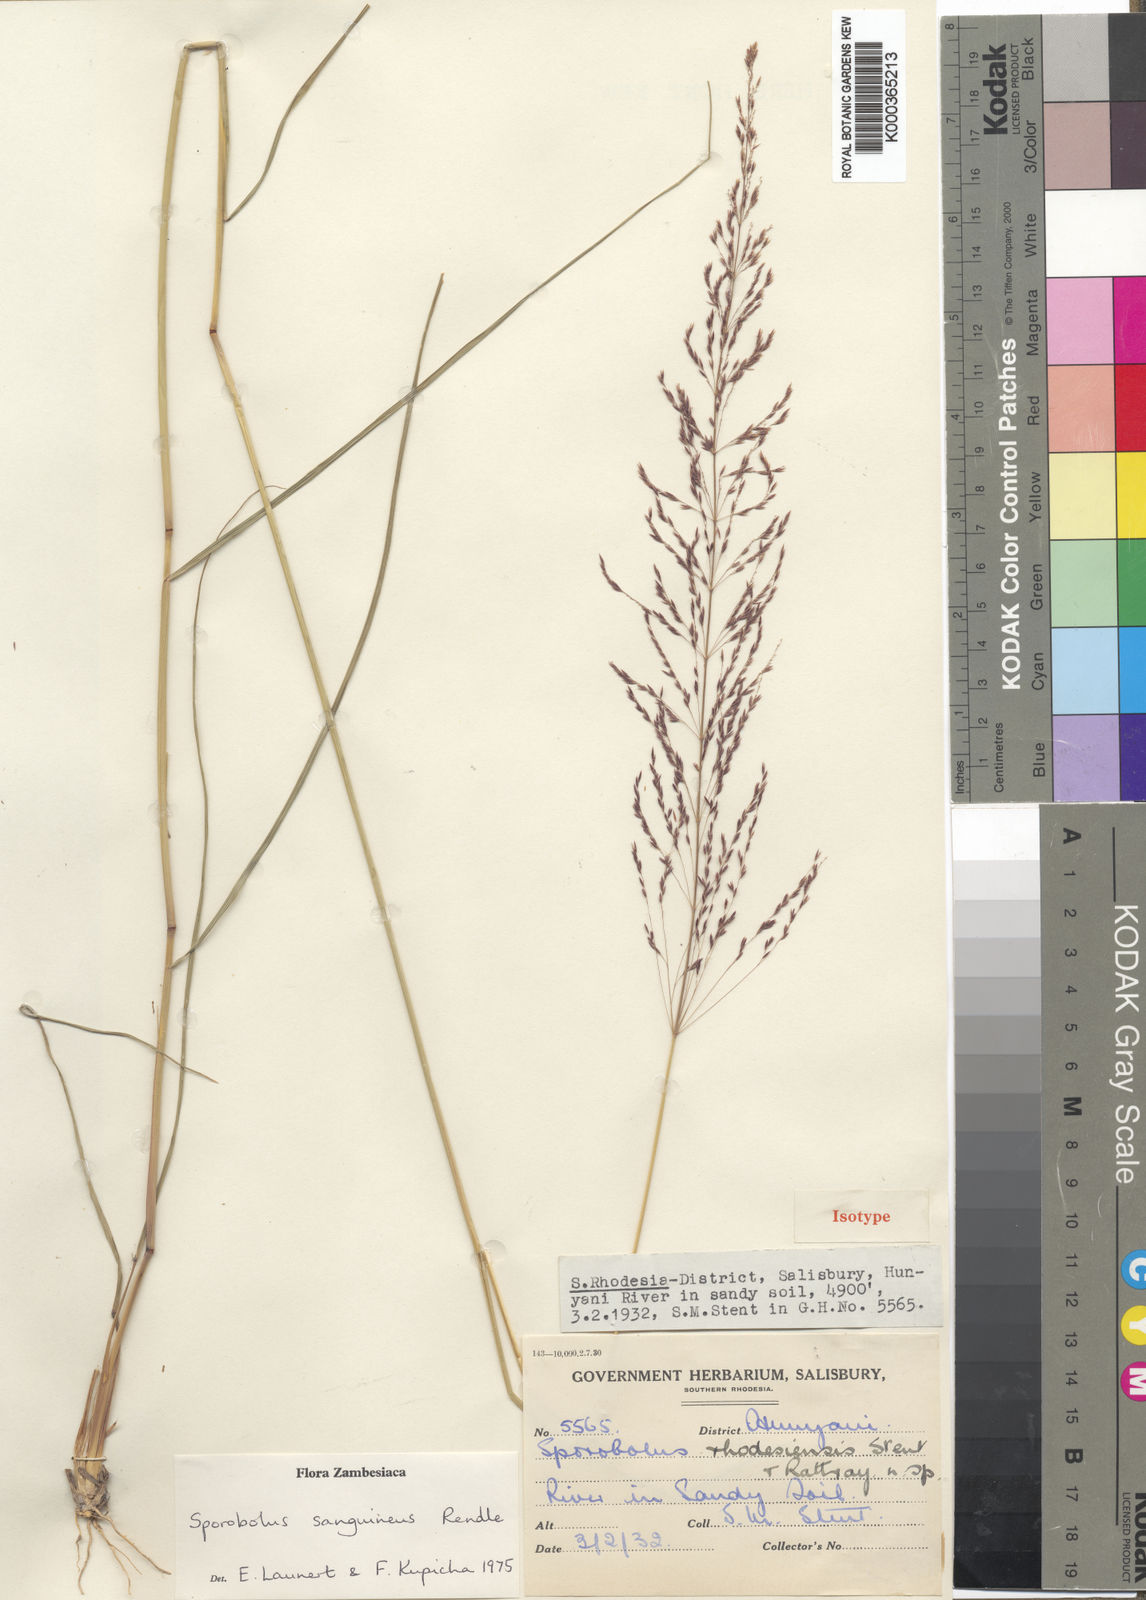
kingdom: Plantae
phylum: Tracheophyta
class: Liliopsida
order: Poales
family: Poaceae
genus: Sporobolus
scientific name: Sporobolus sanguineus
